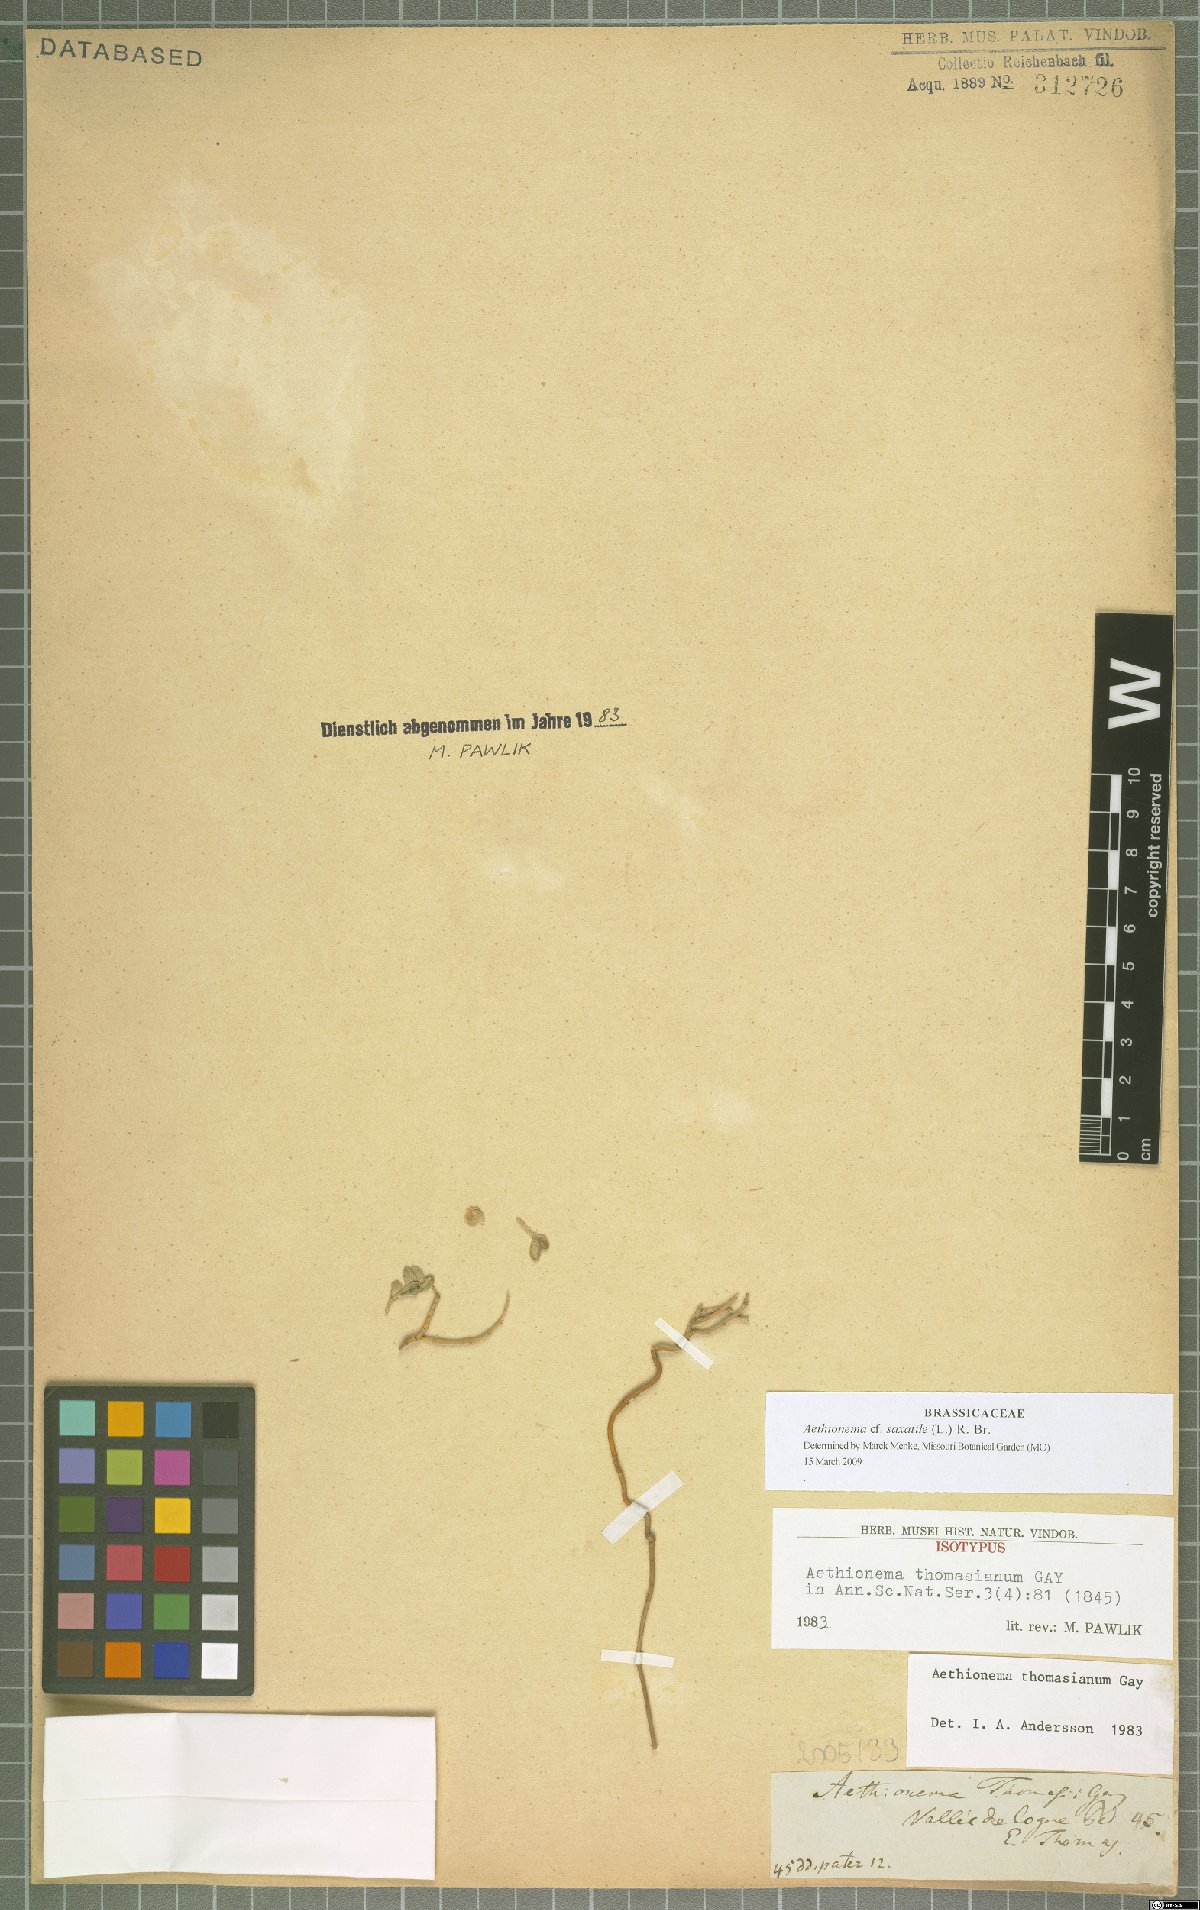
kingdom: Plantae
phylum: Tracheophyta
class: Magnoliopsida
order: Brassicales
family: Brassicaceae
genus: Aethionema
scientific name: Aethionema saxatile
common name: Burnt candytuft
